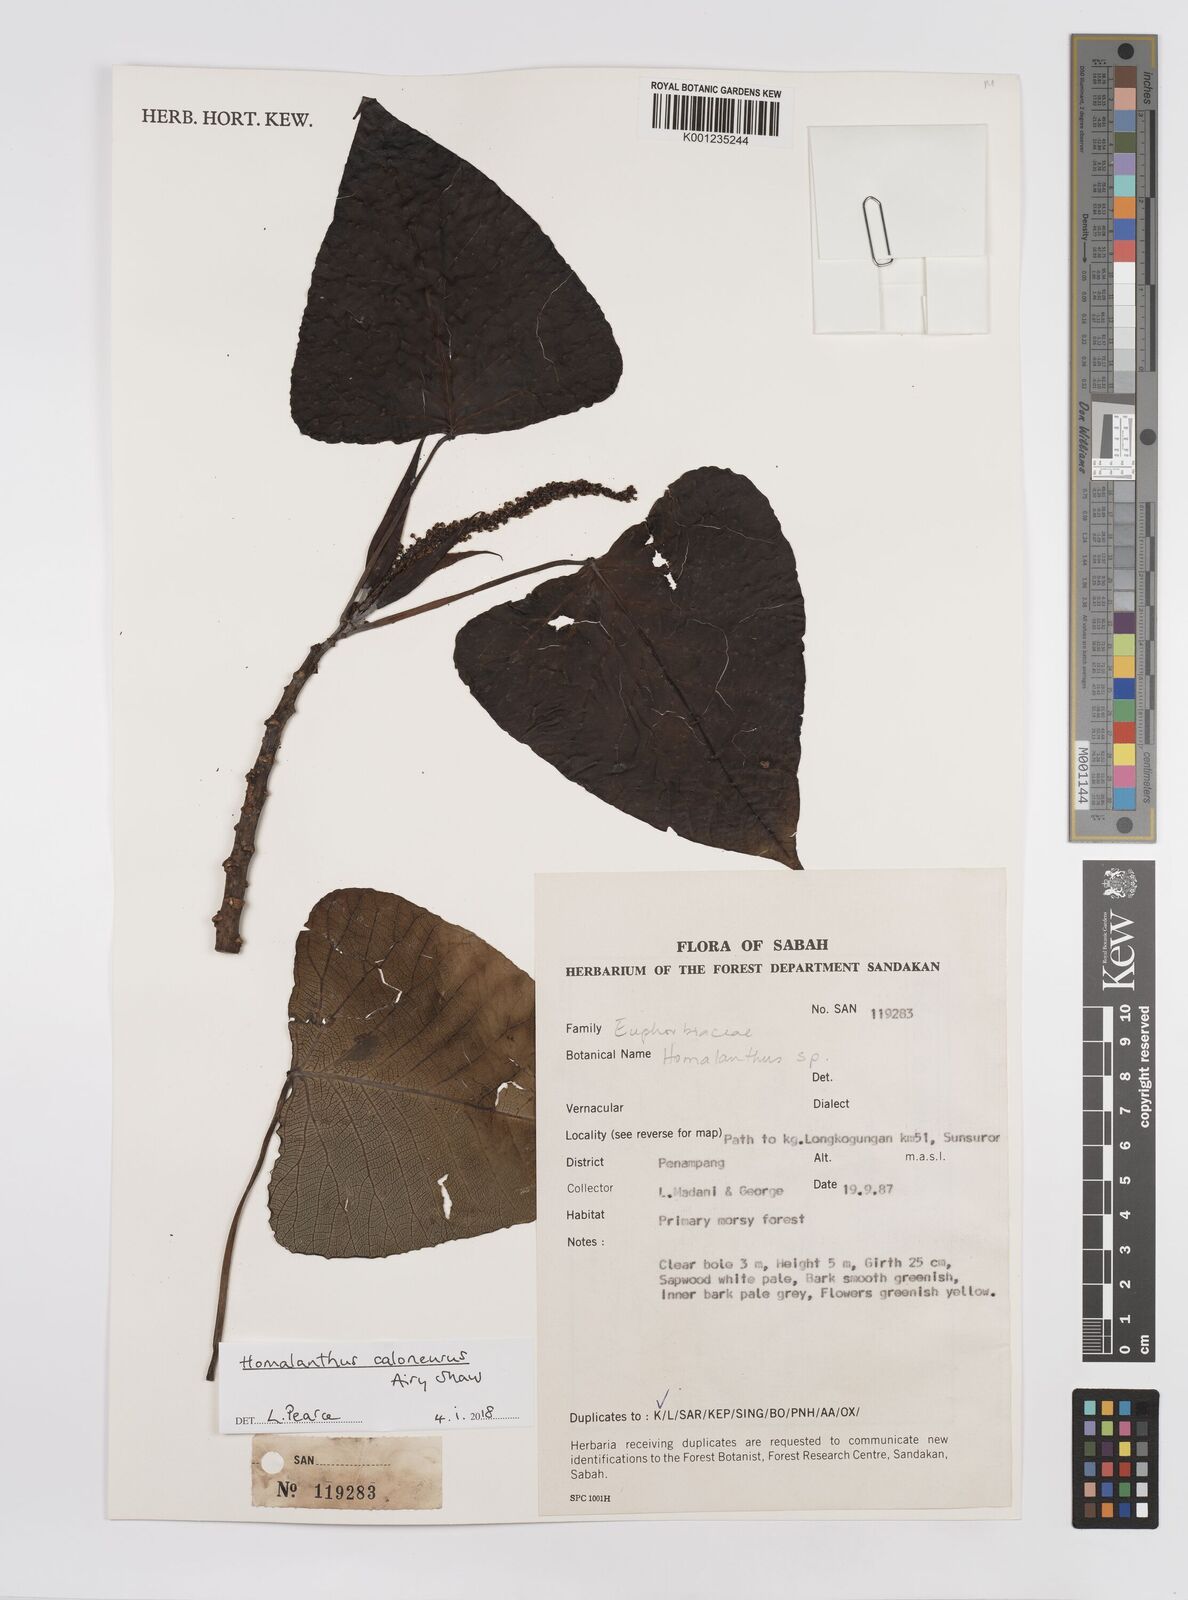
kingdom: Plantae
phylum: Tracheophyta
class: Magnoliopsida
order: Malpighiales
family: Euphorbiaceae
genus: Homalanthus
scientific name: Homalanthus caloneurus
